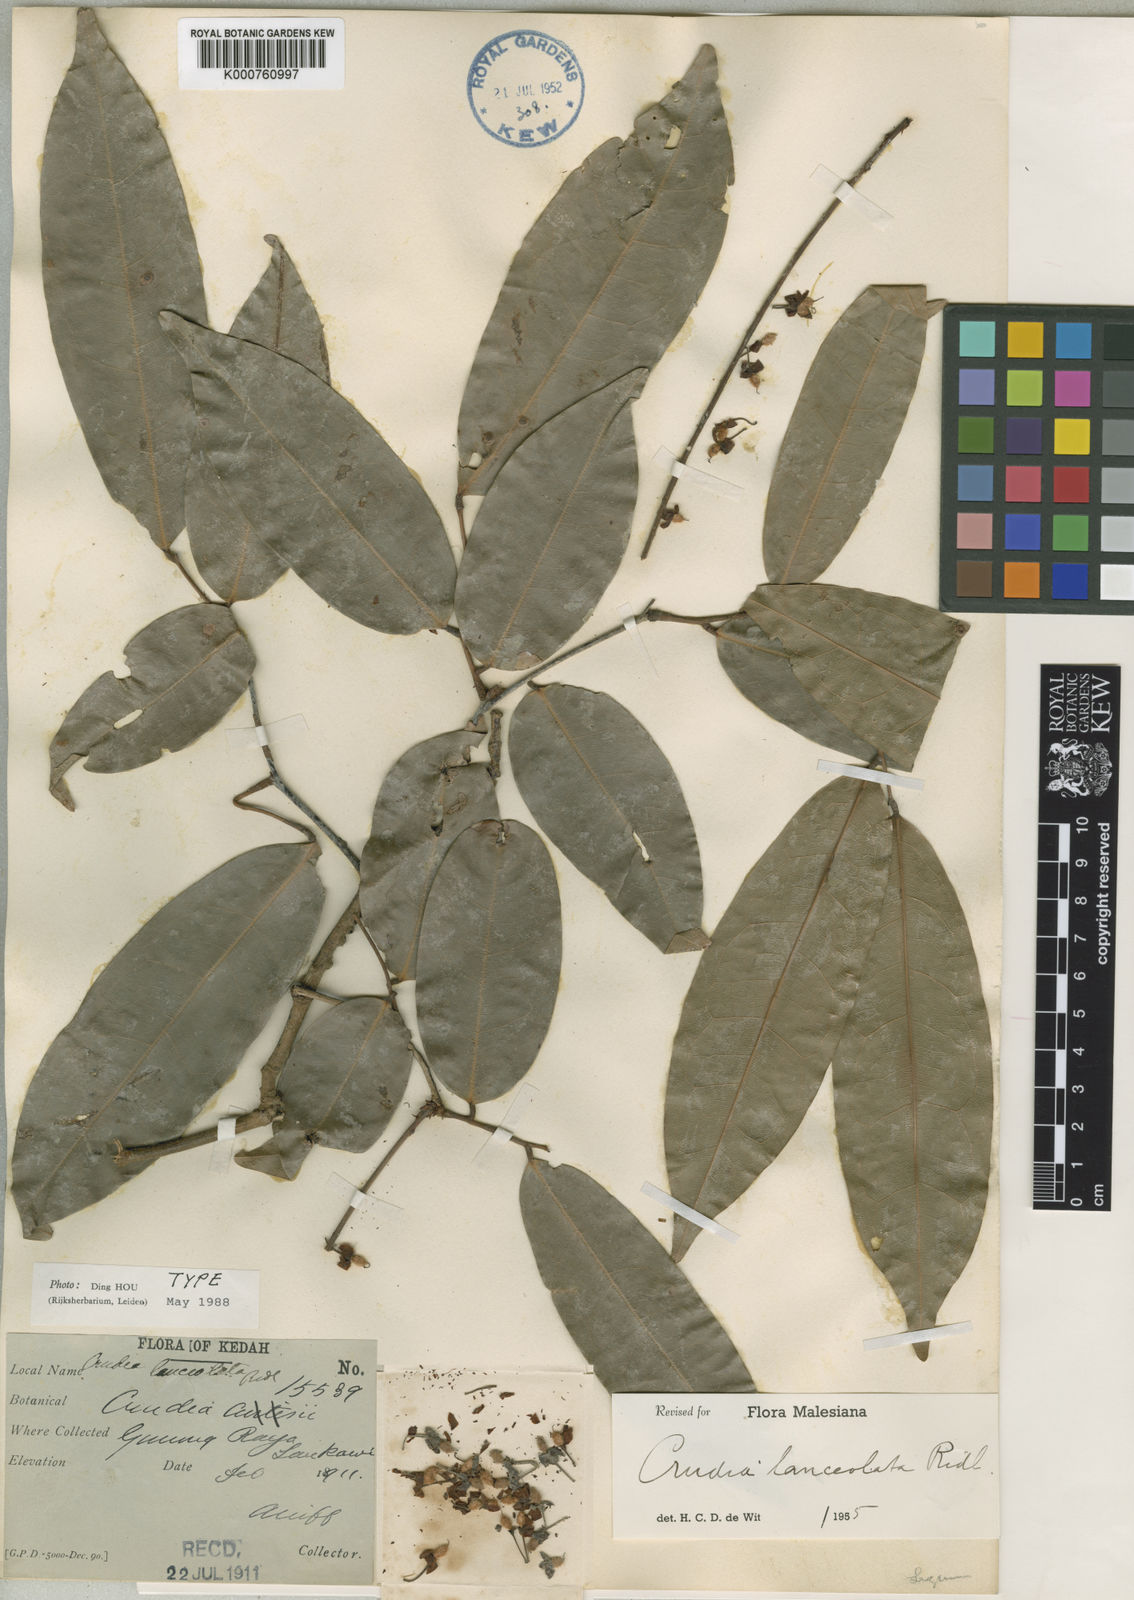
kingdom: Plantae
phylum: Tracheophyta
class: Magnoliopsida
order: Fabales
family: Fabaceae
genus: Crudia
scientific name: Crudia penduliflora
